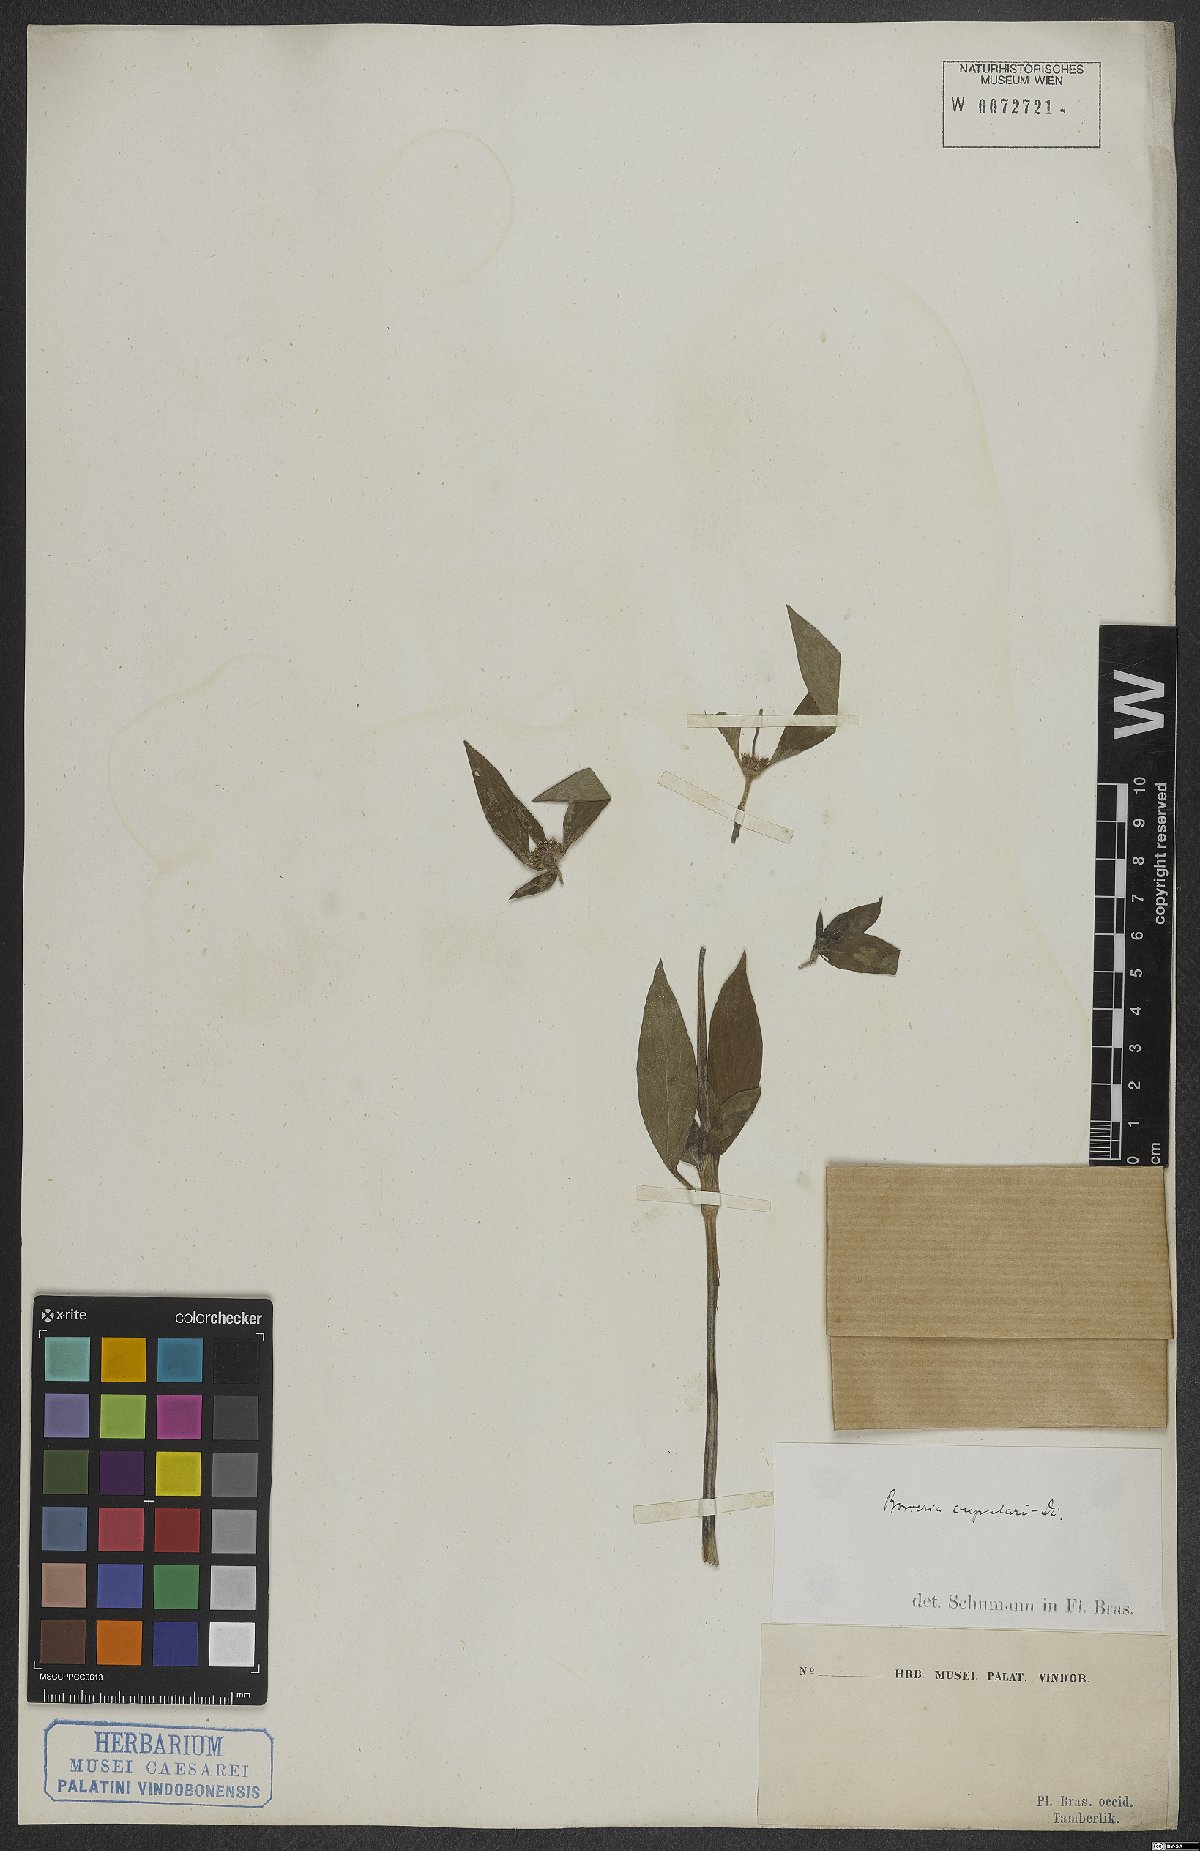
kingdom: Plantae
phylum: Tracheophyta
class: Magnoliopsida
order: Gentianales
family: Rubiaceae
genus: Spermacoce
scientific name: Spermacoce cupularis
